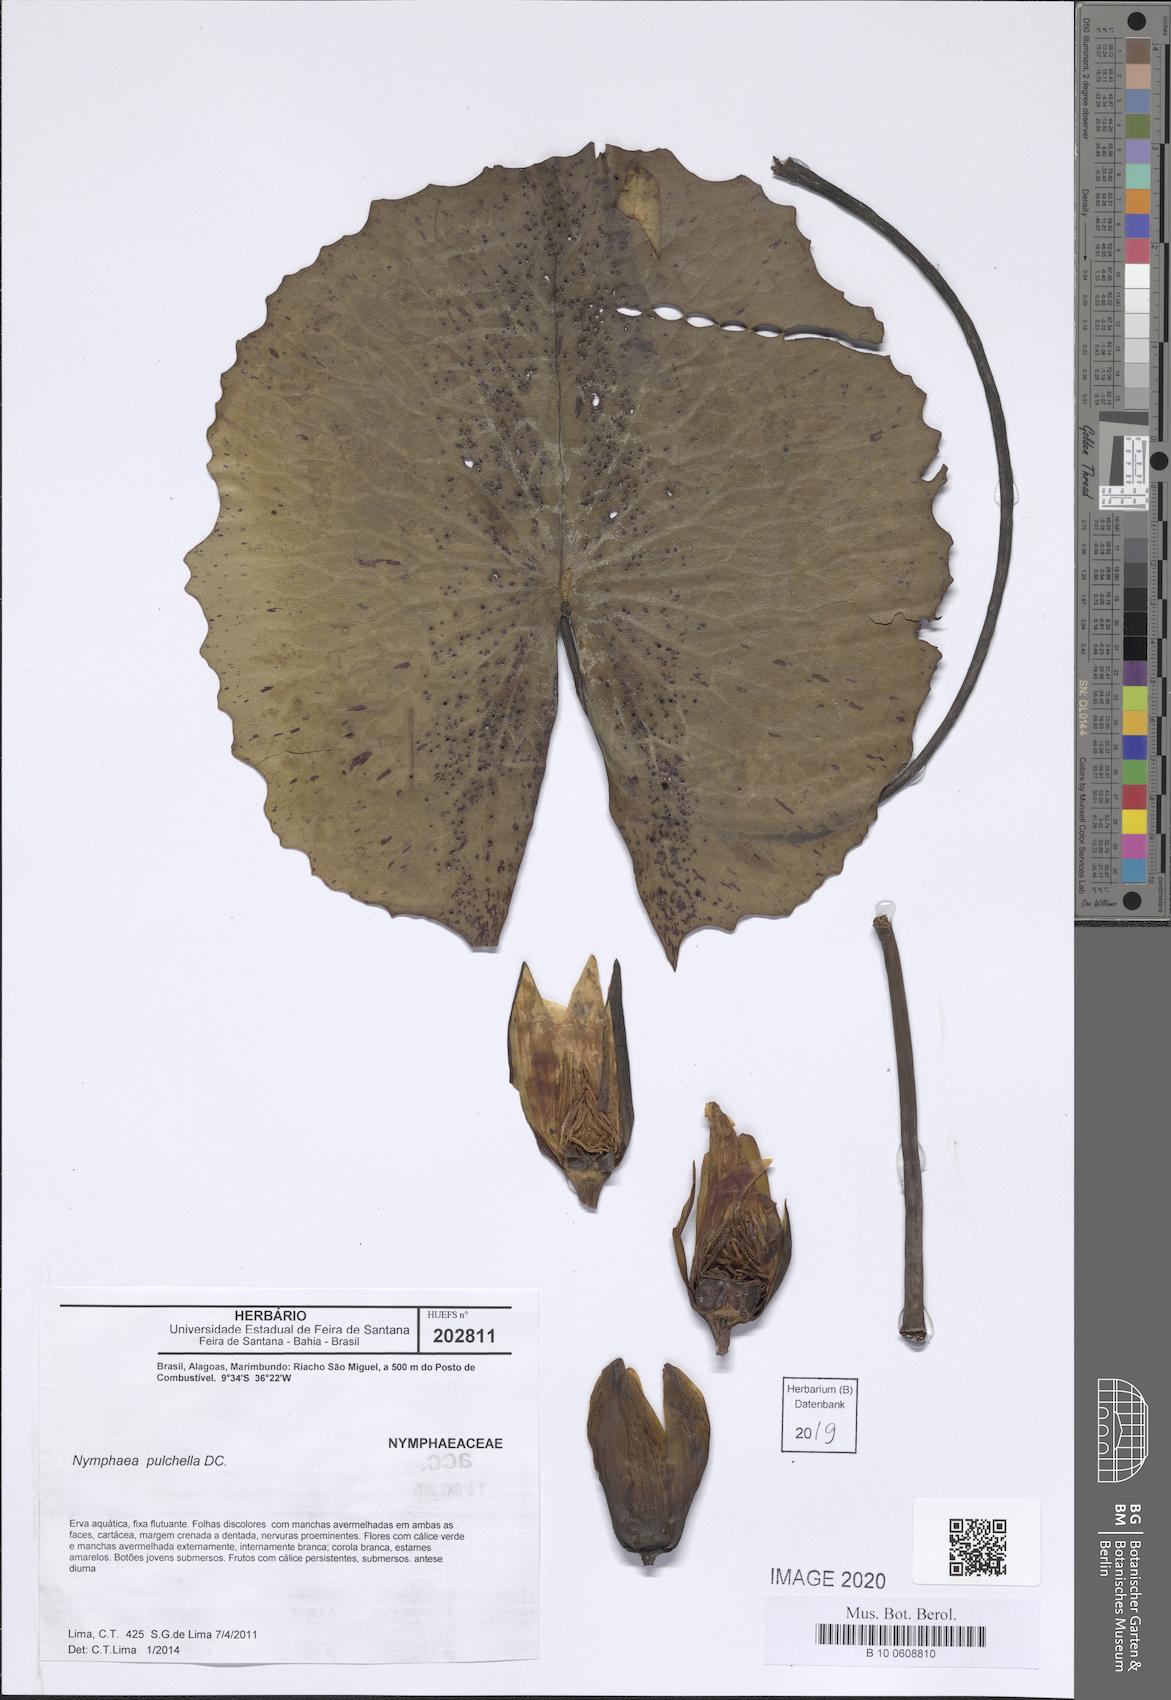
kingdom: Plantae
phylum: Tracheophyta
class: Magnoliopsida
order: Nymphaeales
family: Nymphaeaceae
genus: Nymphaea
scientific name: Nymphaea pulchella
